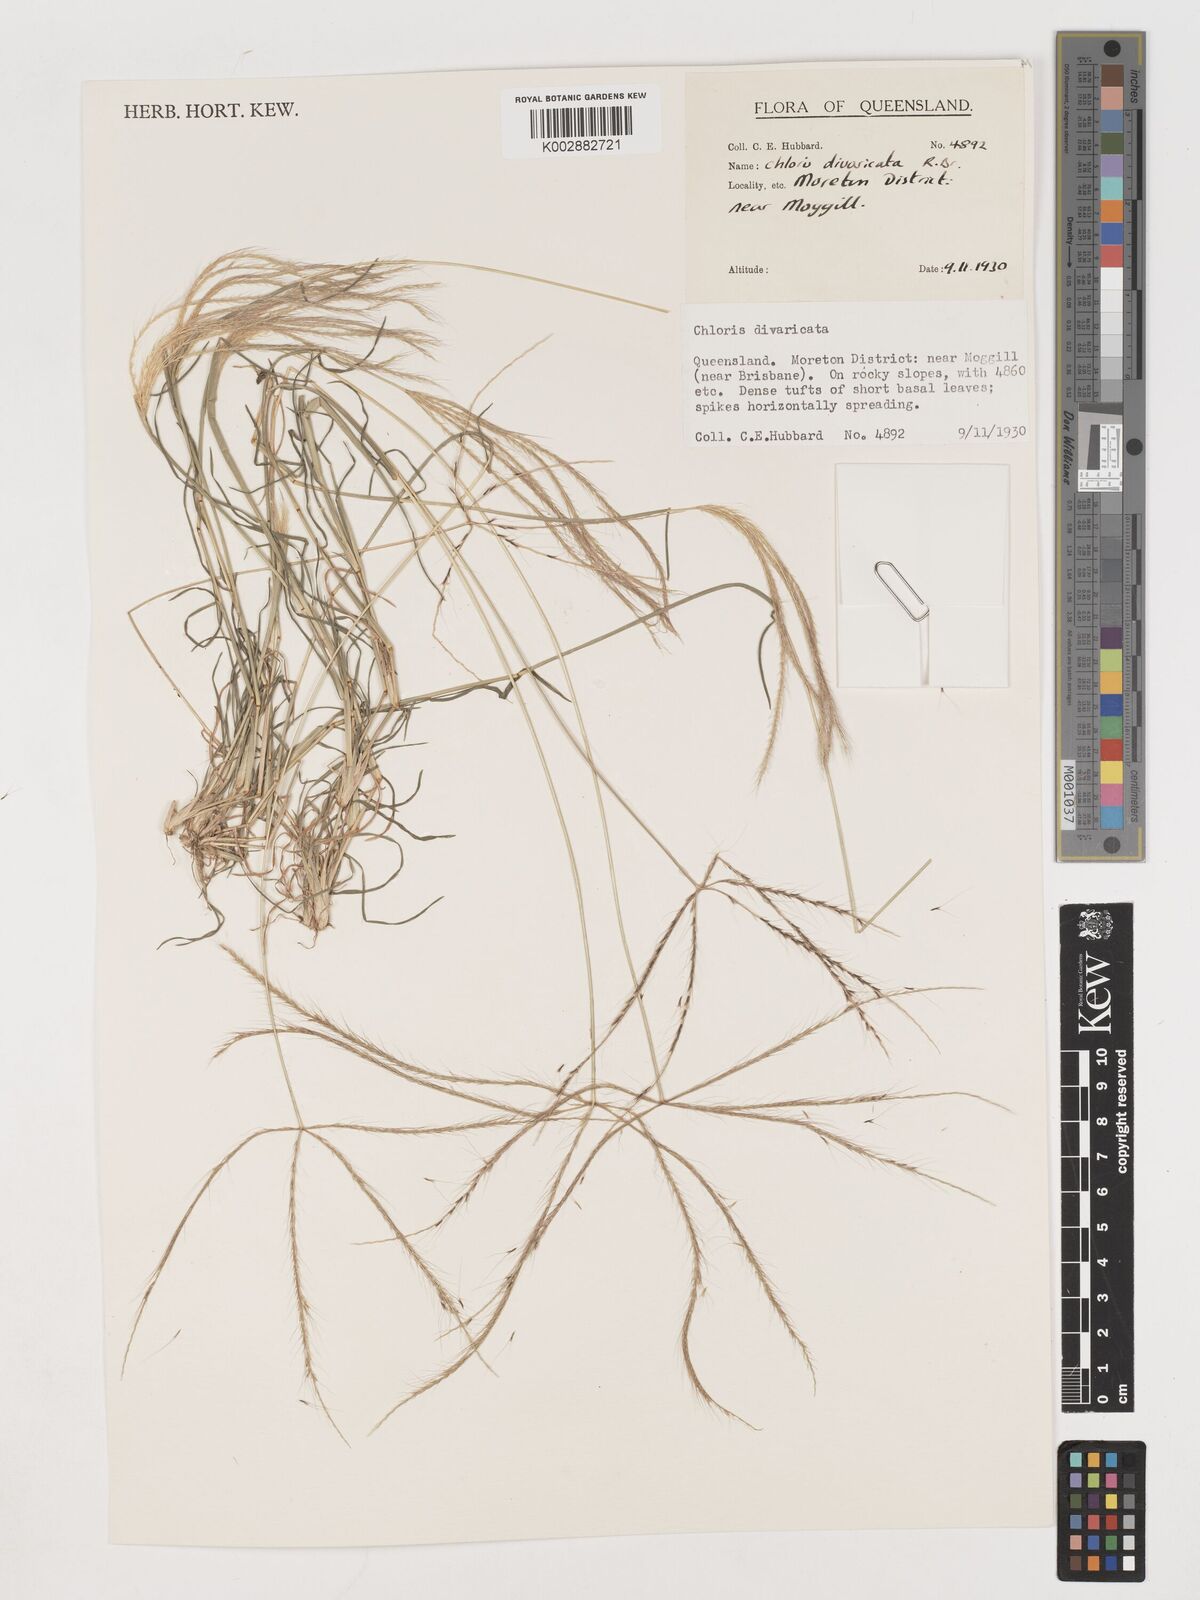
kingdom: Plantae
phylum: Tracheophyta
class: Liliopsida
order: Poales
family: Poaceae
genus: Chloris
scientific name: Chloris divaricata
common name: Spreading windmill grass
